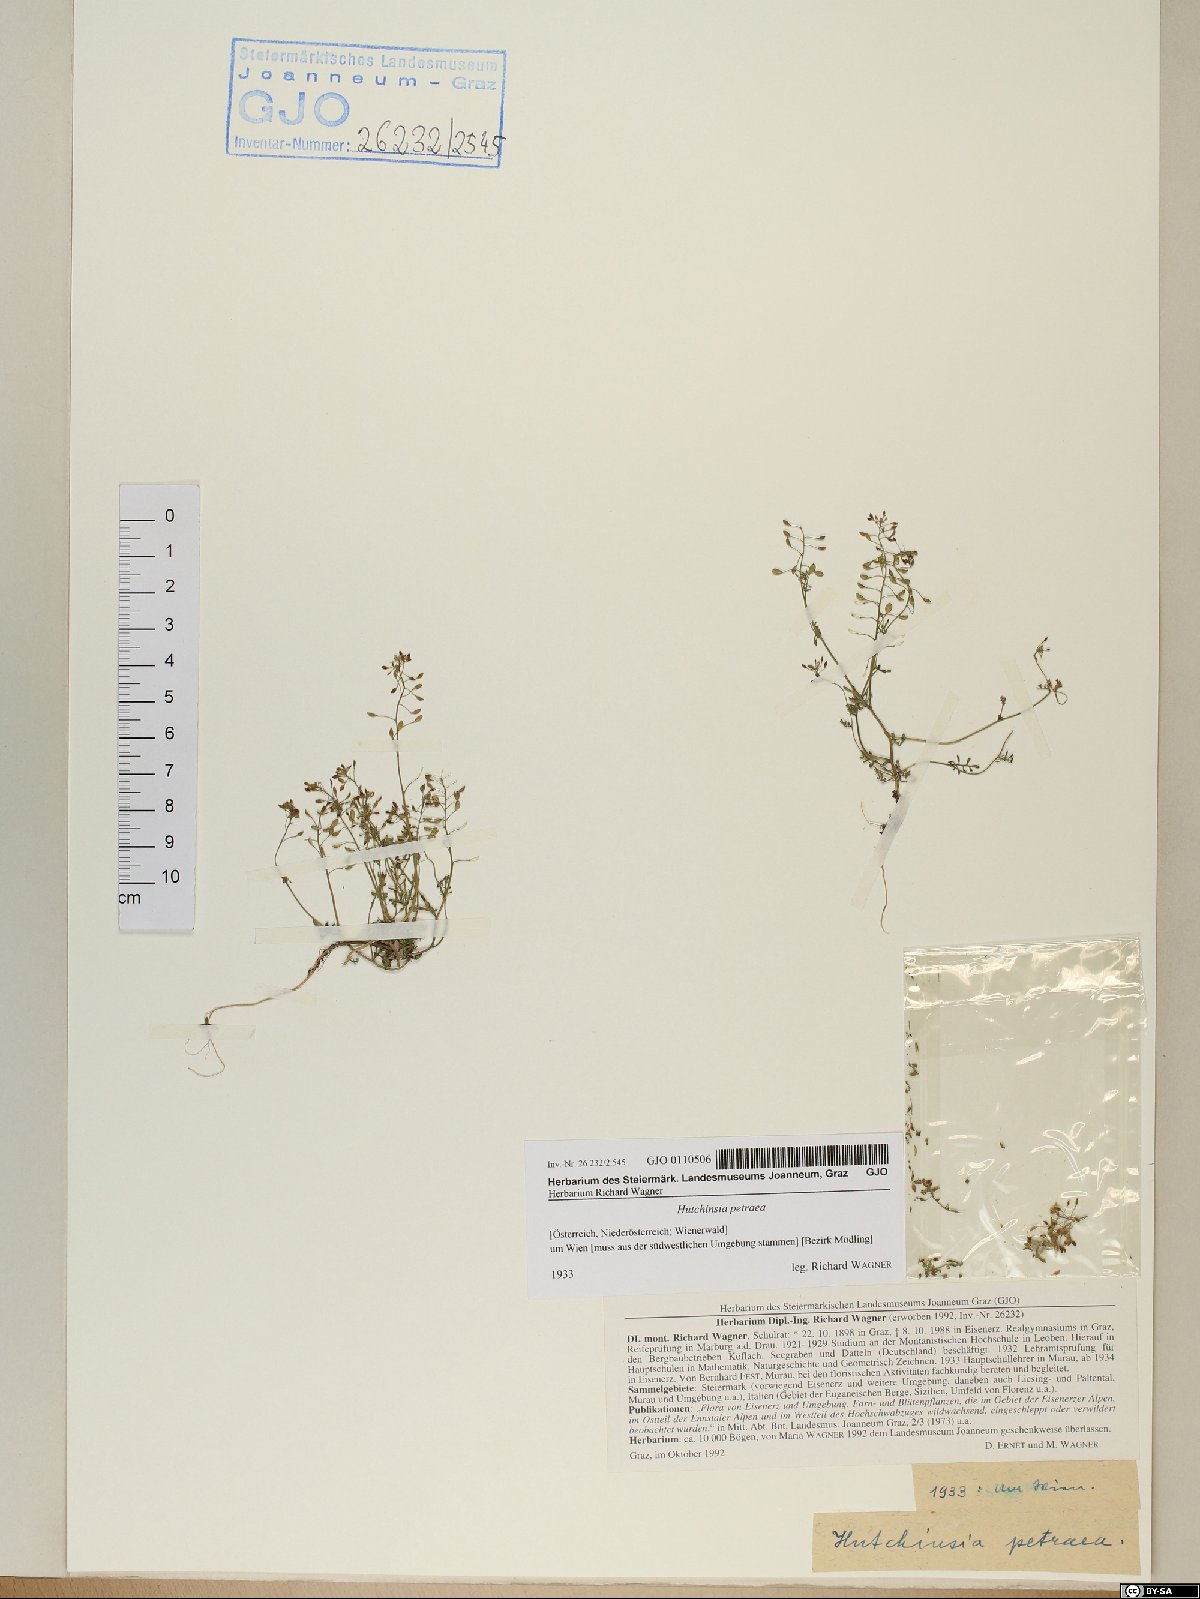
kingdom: Plantae
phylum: Tracheophyta
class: Magnoliopsida
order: Brassicales
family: Brassicaceae
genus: Hornungia
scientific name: Hornungia petraea
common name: Hutchinsia
